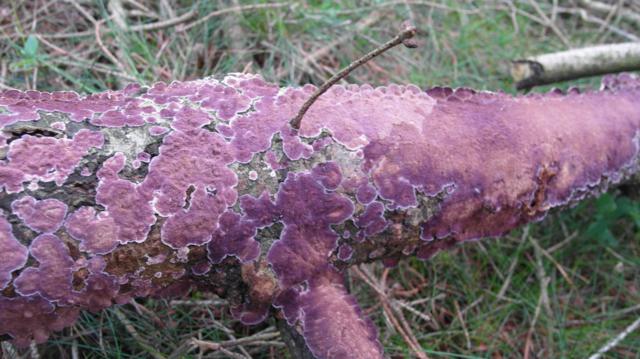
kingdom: Fungi
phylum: Basidiomycota
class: Agaricomycetes
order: Hymenochaetales
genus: Trichaptum
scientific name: Trichaptum abietinum
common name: almindelig violporesvamp
